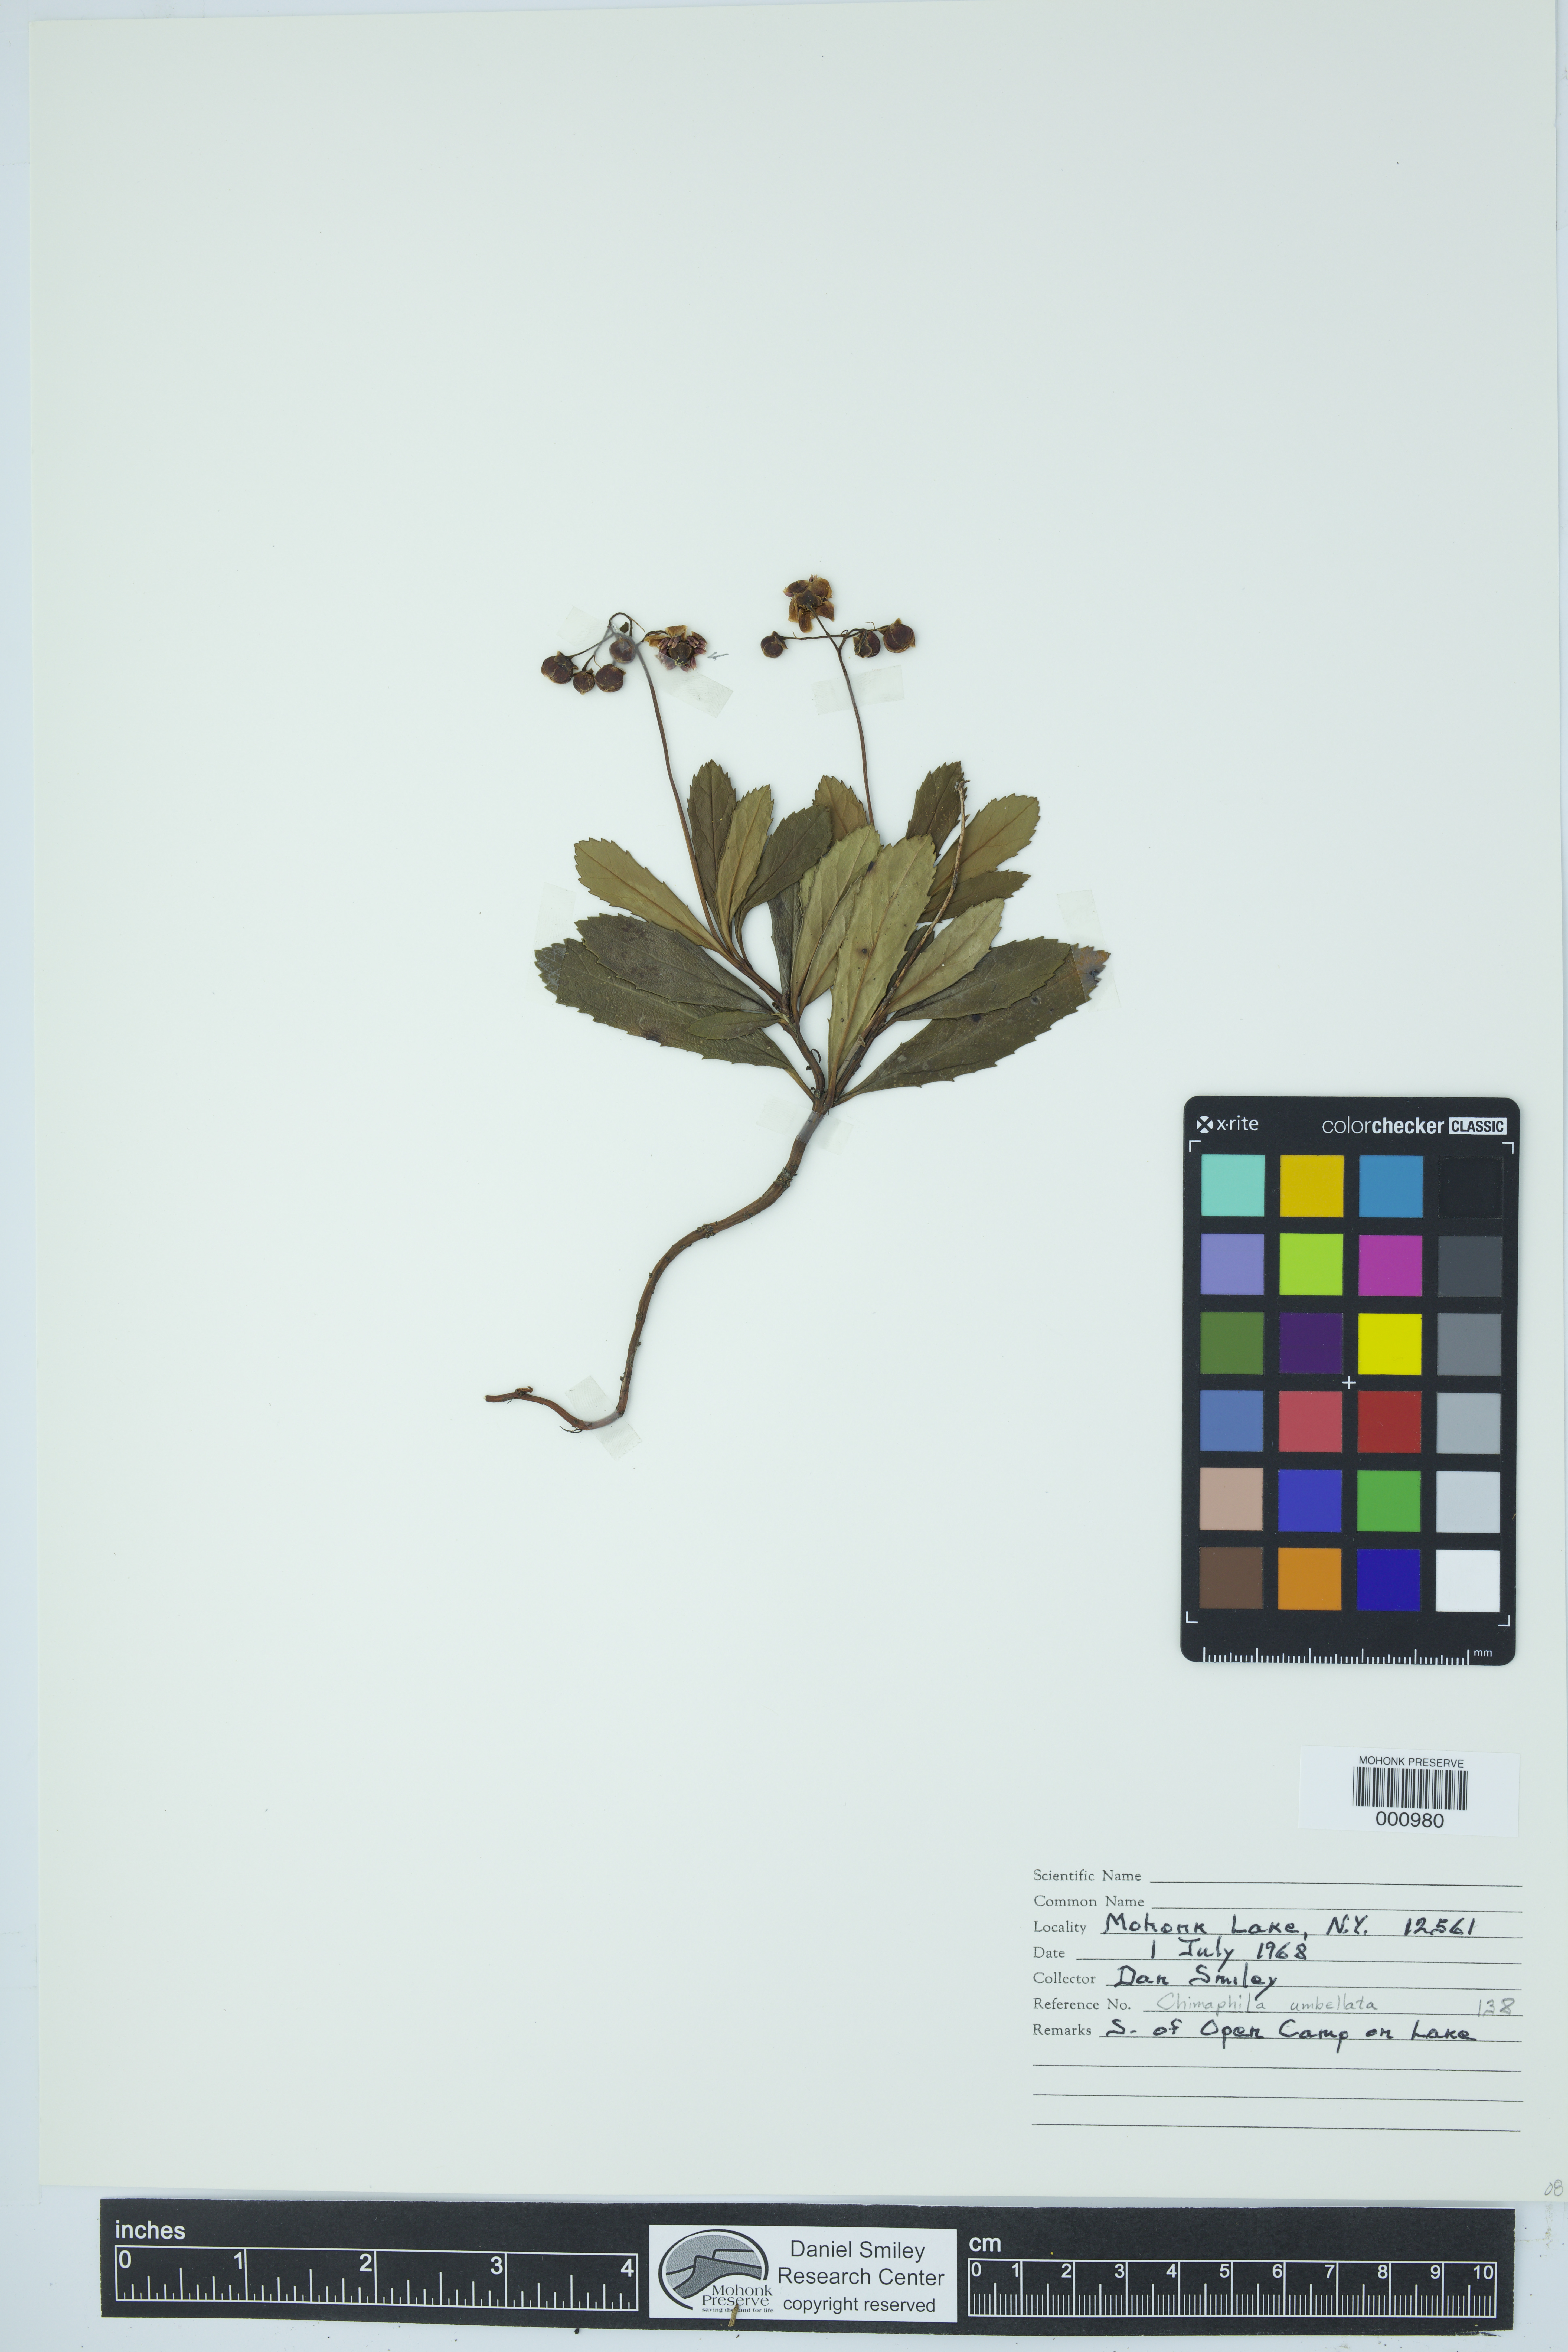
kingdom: Plantae
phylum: Tracheophyta
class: Magnoliopsida
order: Ericales
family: Ericaceae
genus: Chimaphila
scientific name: Chimaphila umbellata
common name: Pipsissewa
